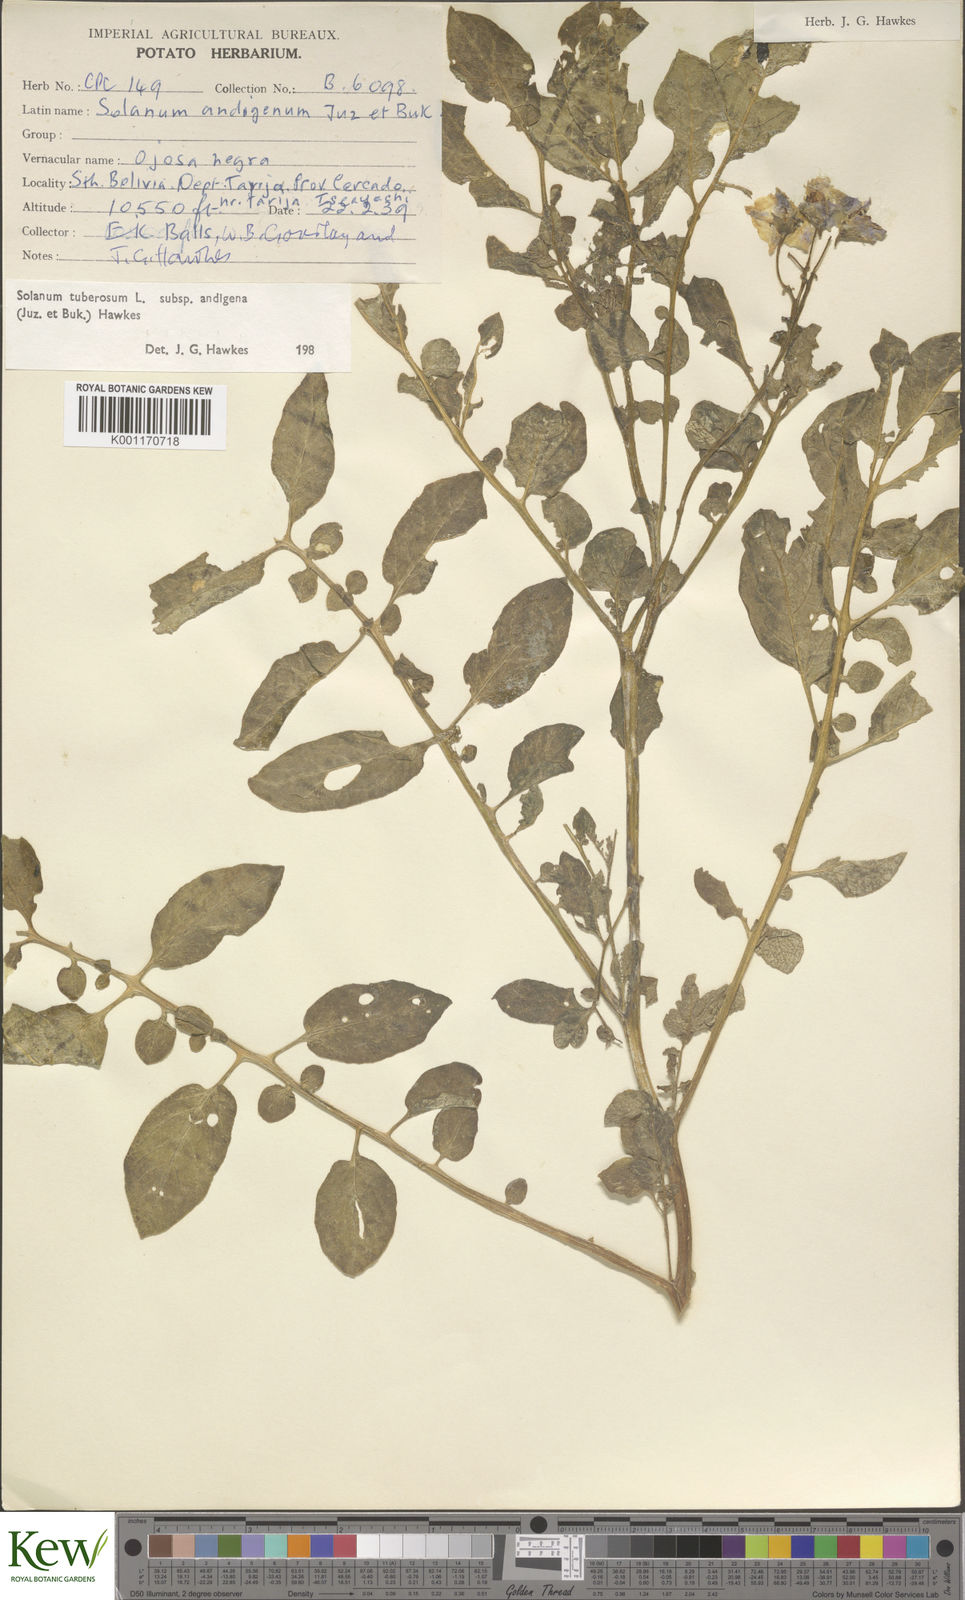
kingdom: Plantae
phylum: Tracheophyta
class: Magnoliopsida
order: Solanales
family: Solanaceae
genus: Solanum
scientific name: Solanum tuberosum
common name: Potato
